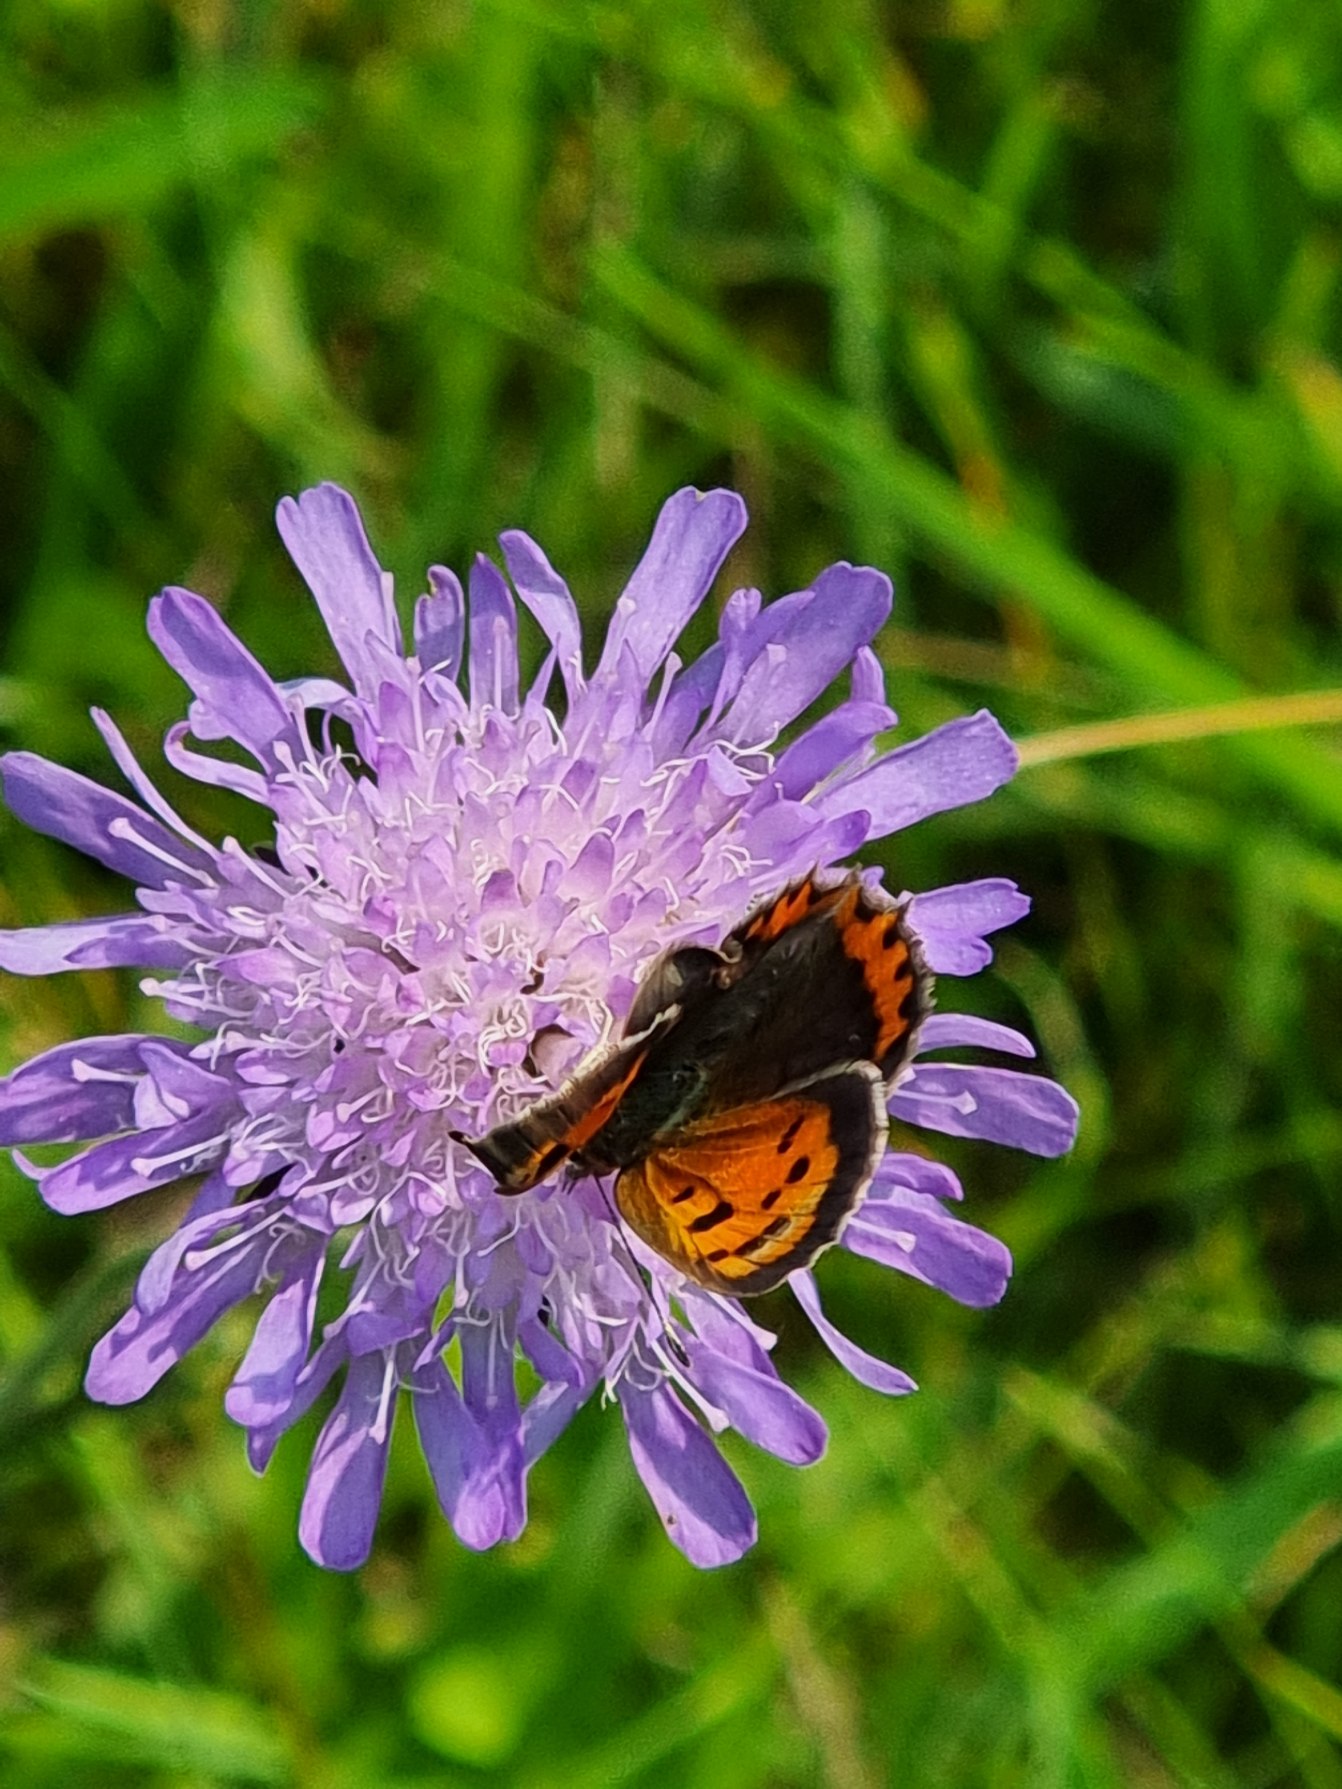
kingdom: Animalia
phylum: Arthropoda
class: Insecta
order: Lepidoptera
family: Lycaenidae
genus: Lycaena
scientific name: Lycaena phlaeas
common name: Lille ildfugl
